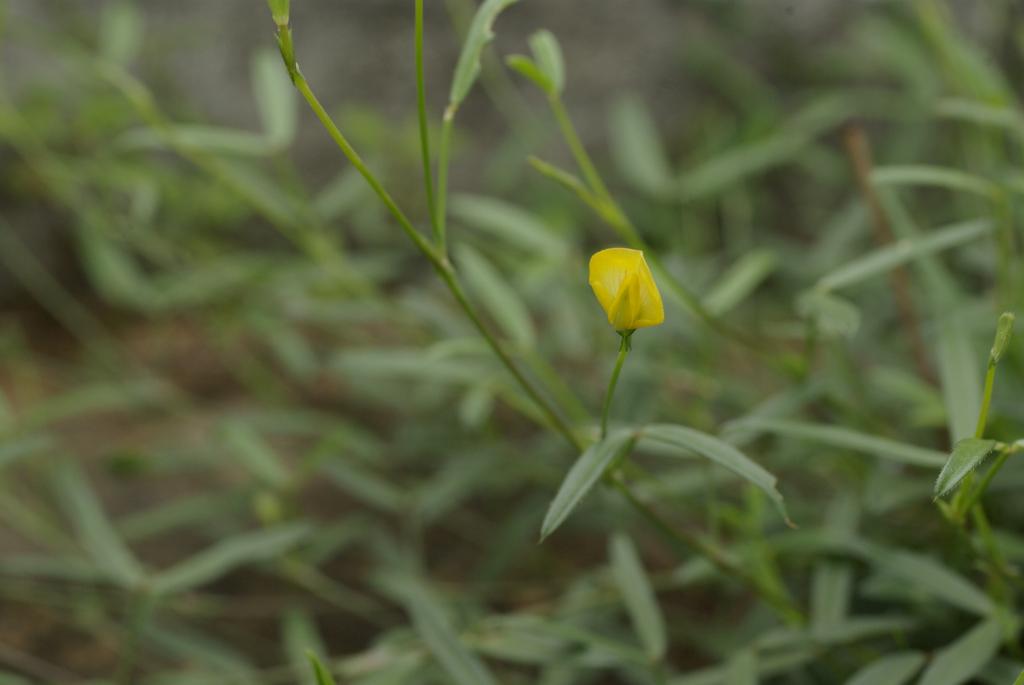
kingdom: Plantae
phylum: Tracheophyta
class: Magnoliopsida
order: Fabales
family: Fabaceae
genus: Zornia
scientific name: Zornia gibbosa
